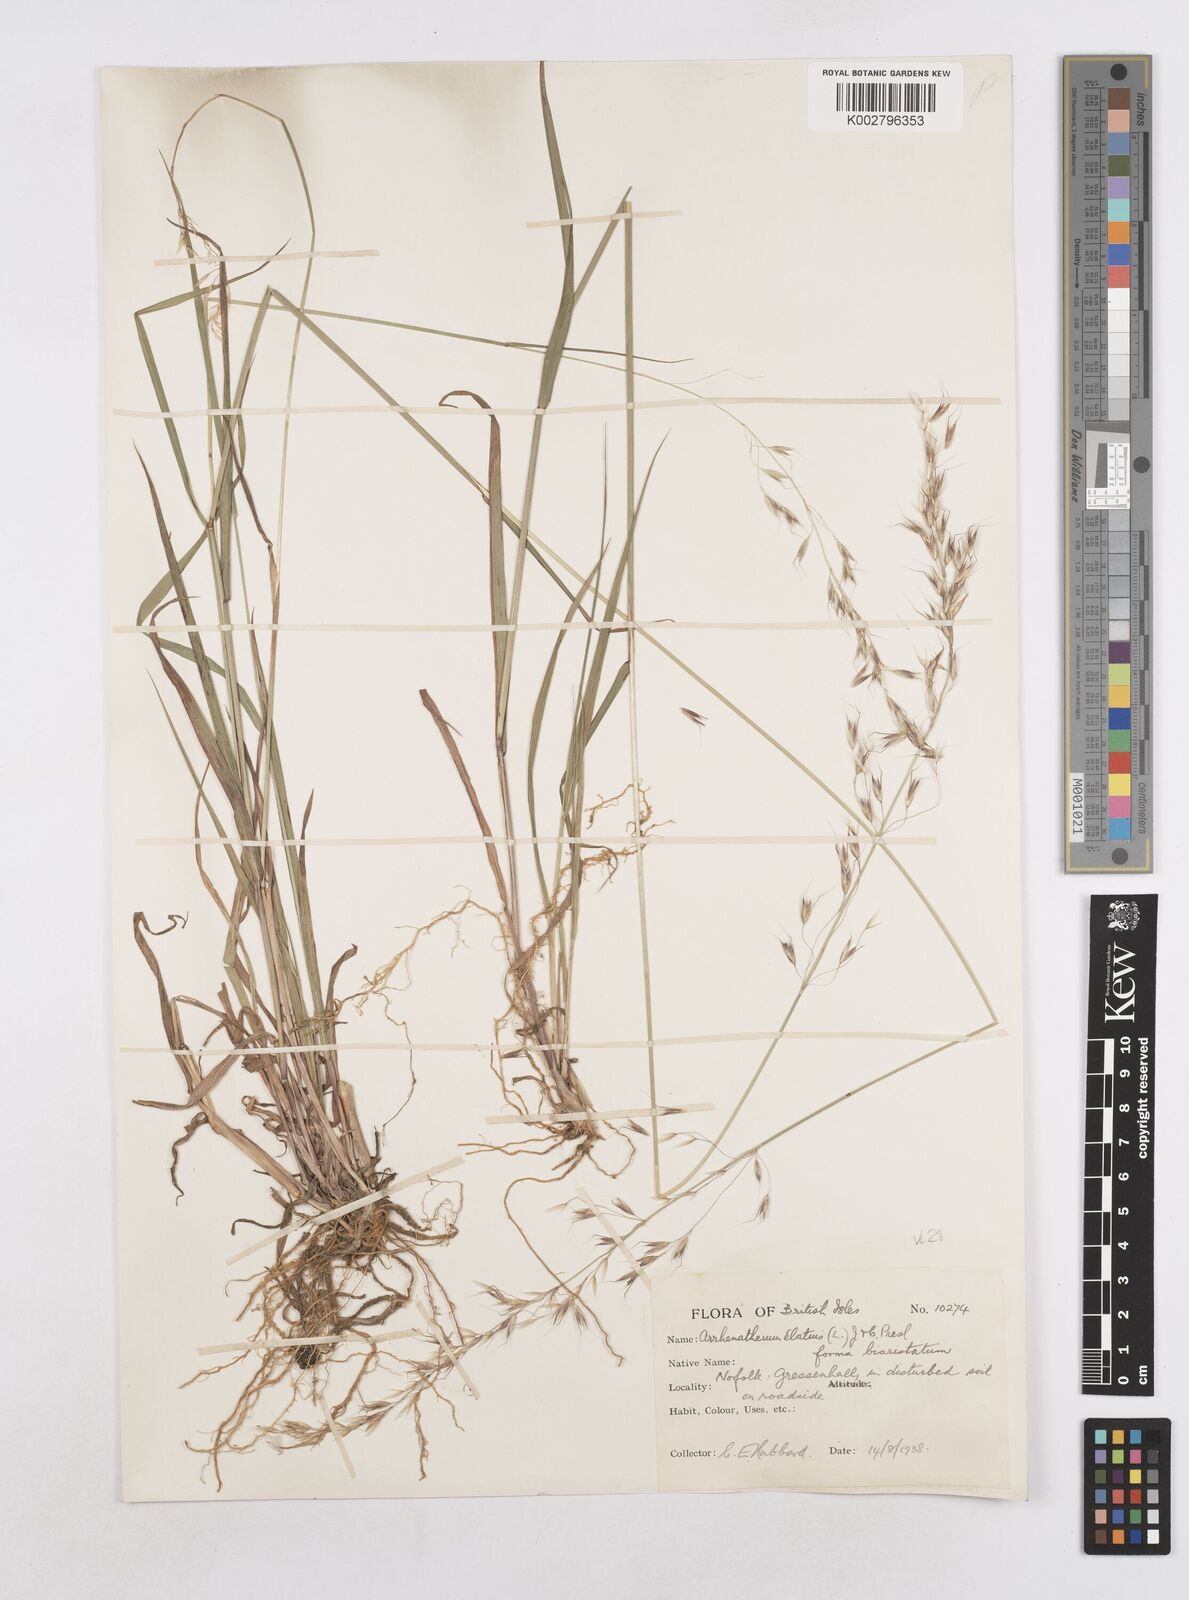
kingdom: Plantae
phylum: Tracheophyta
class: Liliopsida
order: Poales
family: Poaceae
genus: Arrhenatherum
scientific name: Arrhenatherum elatius
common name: Tall oatgrass
